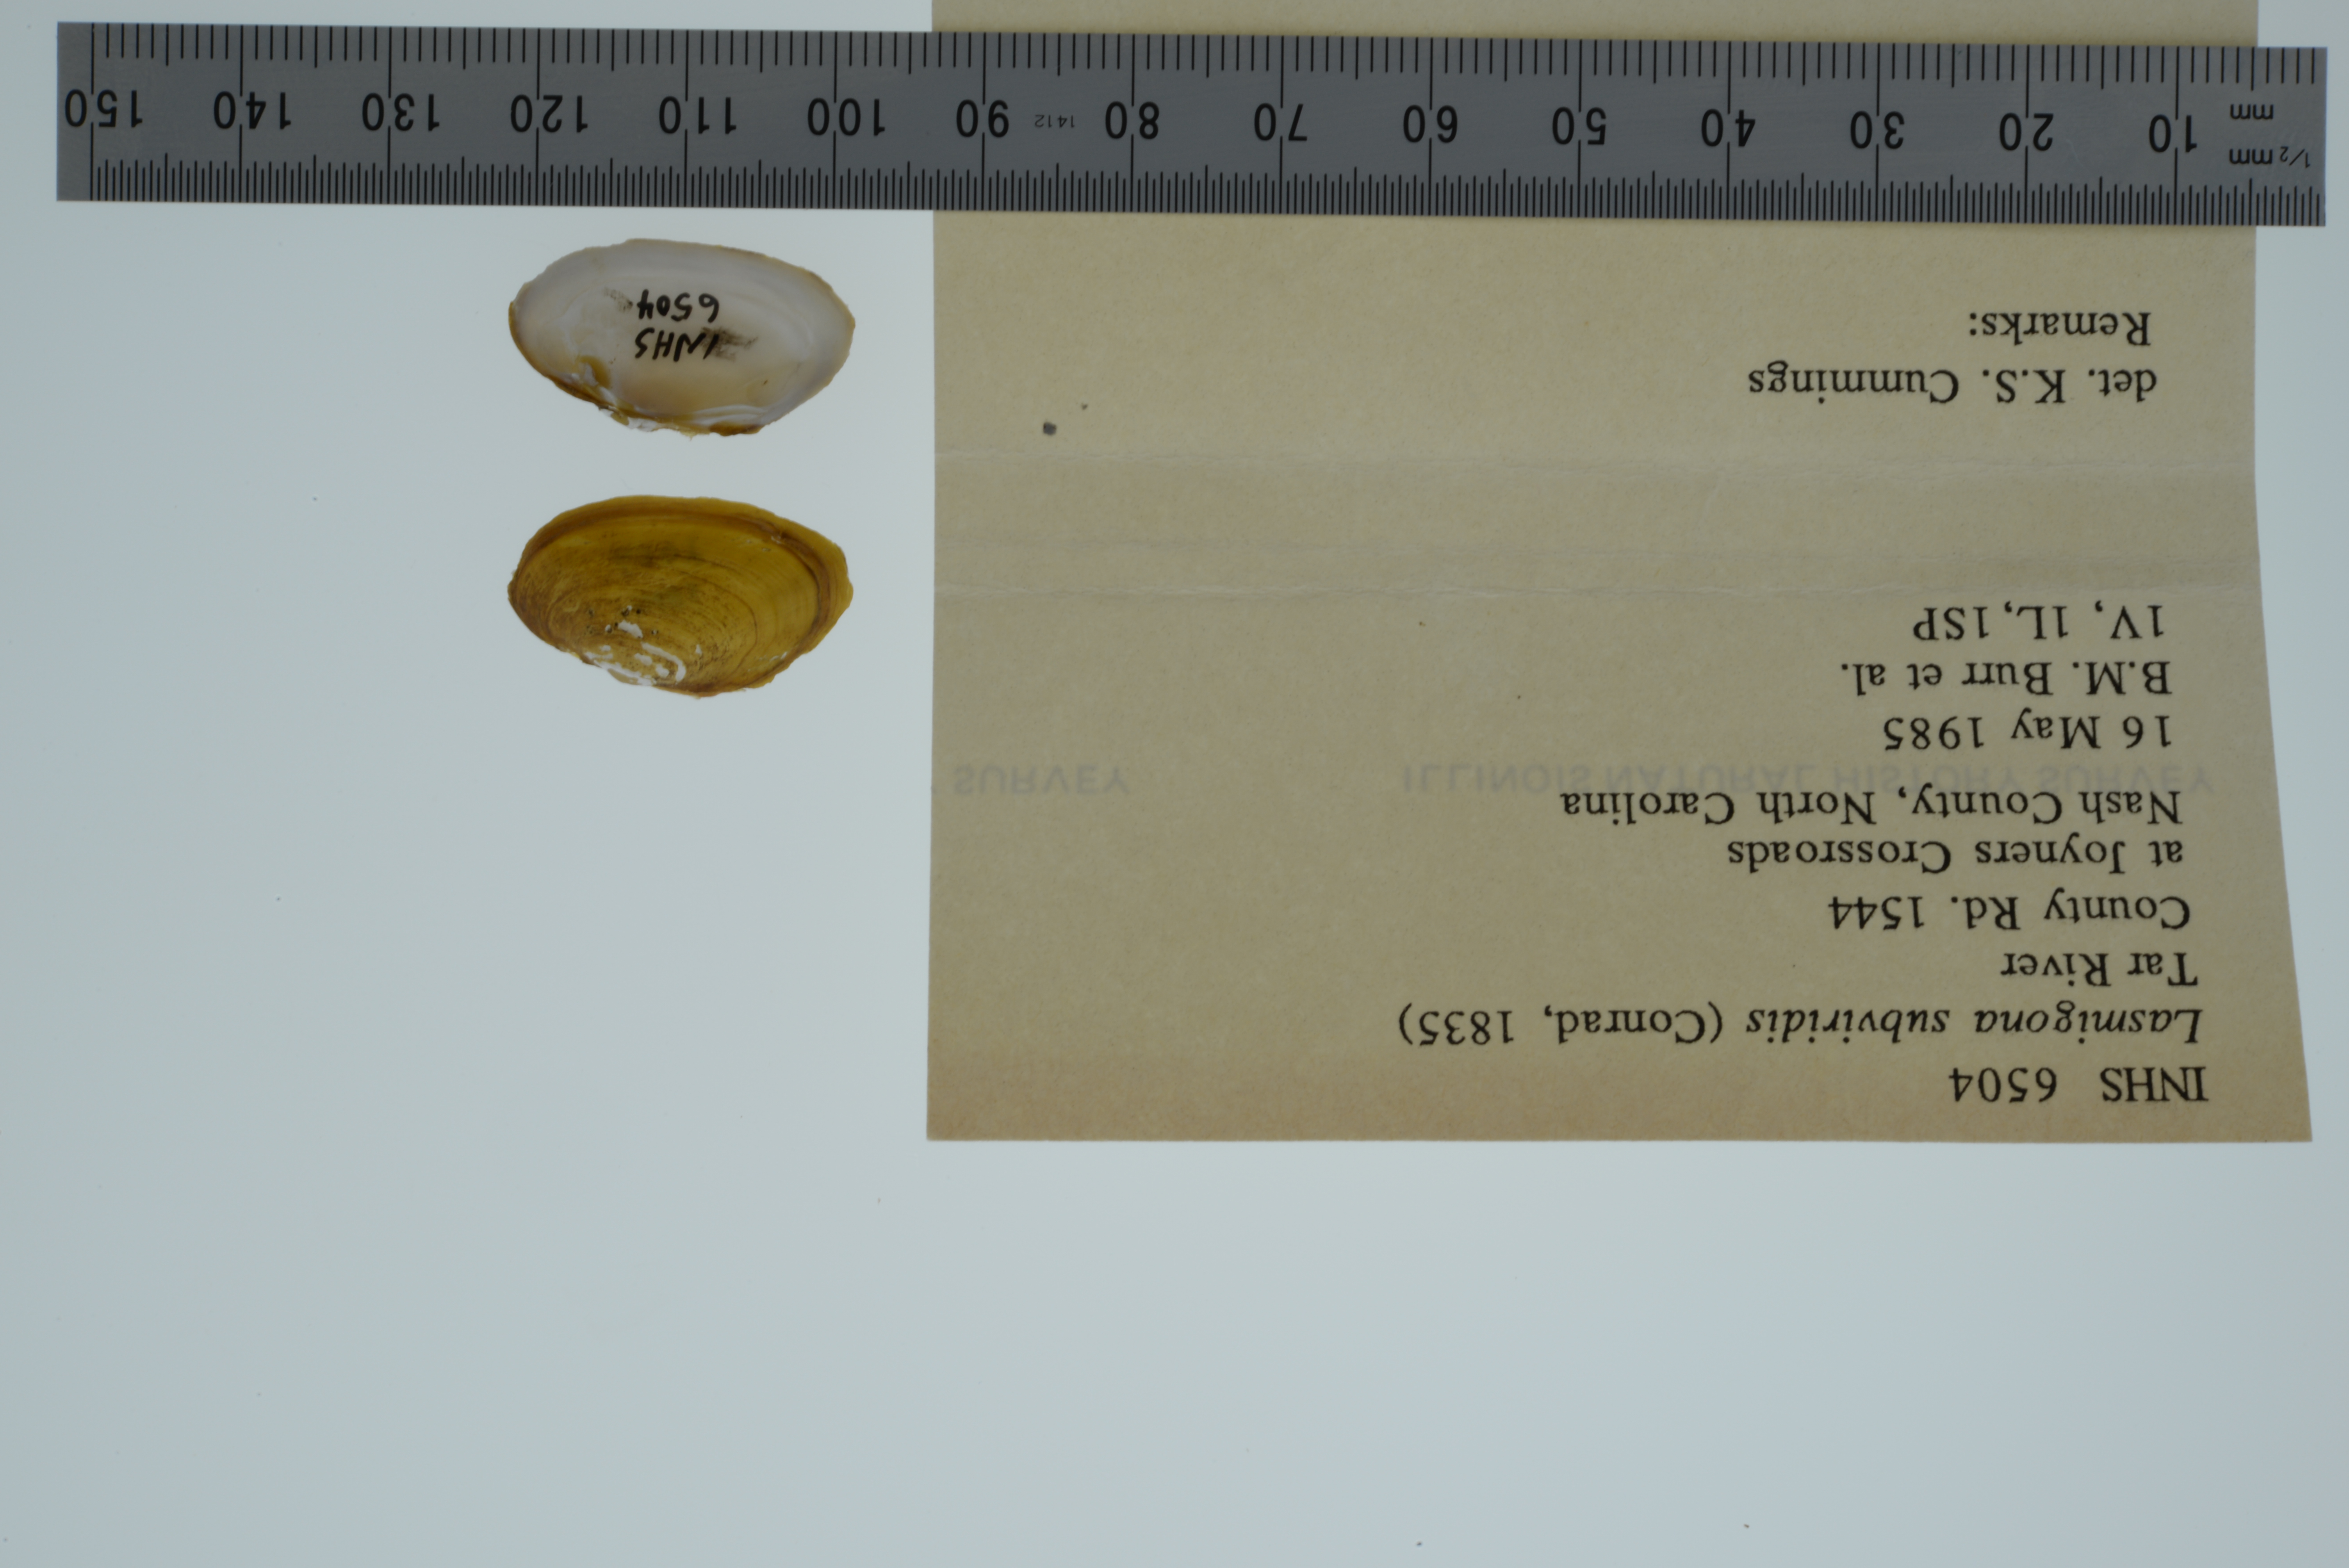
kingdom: Animalia
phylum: Mollusca
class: Bivalvia
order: Unionida
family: Unionidae
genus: Lasmigona
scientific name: Lasmigona subviridis
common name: Green floater
